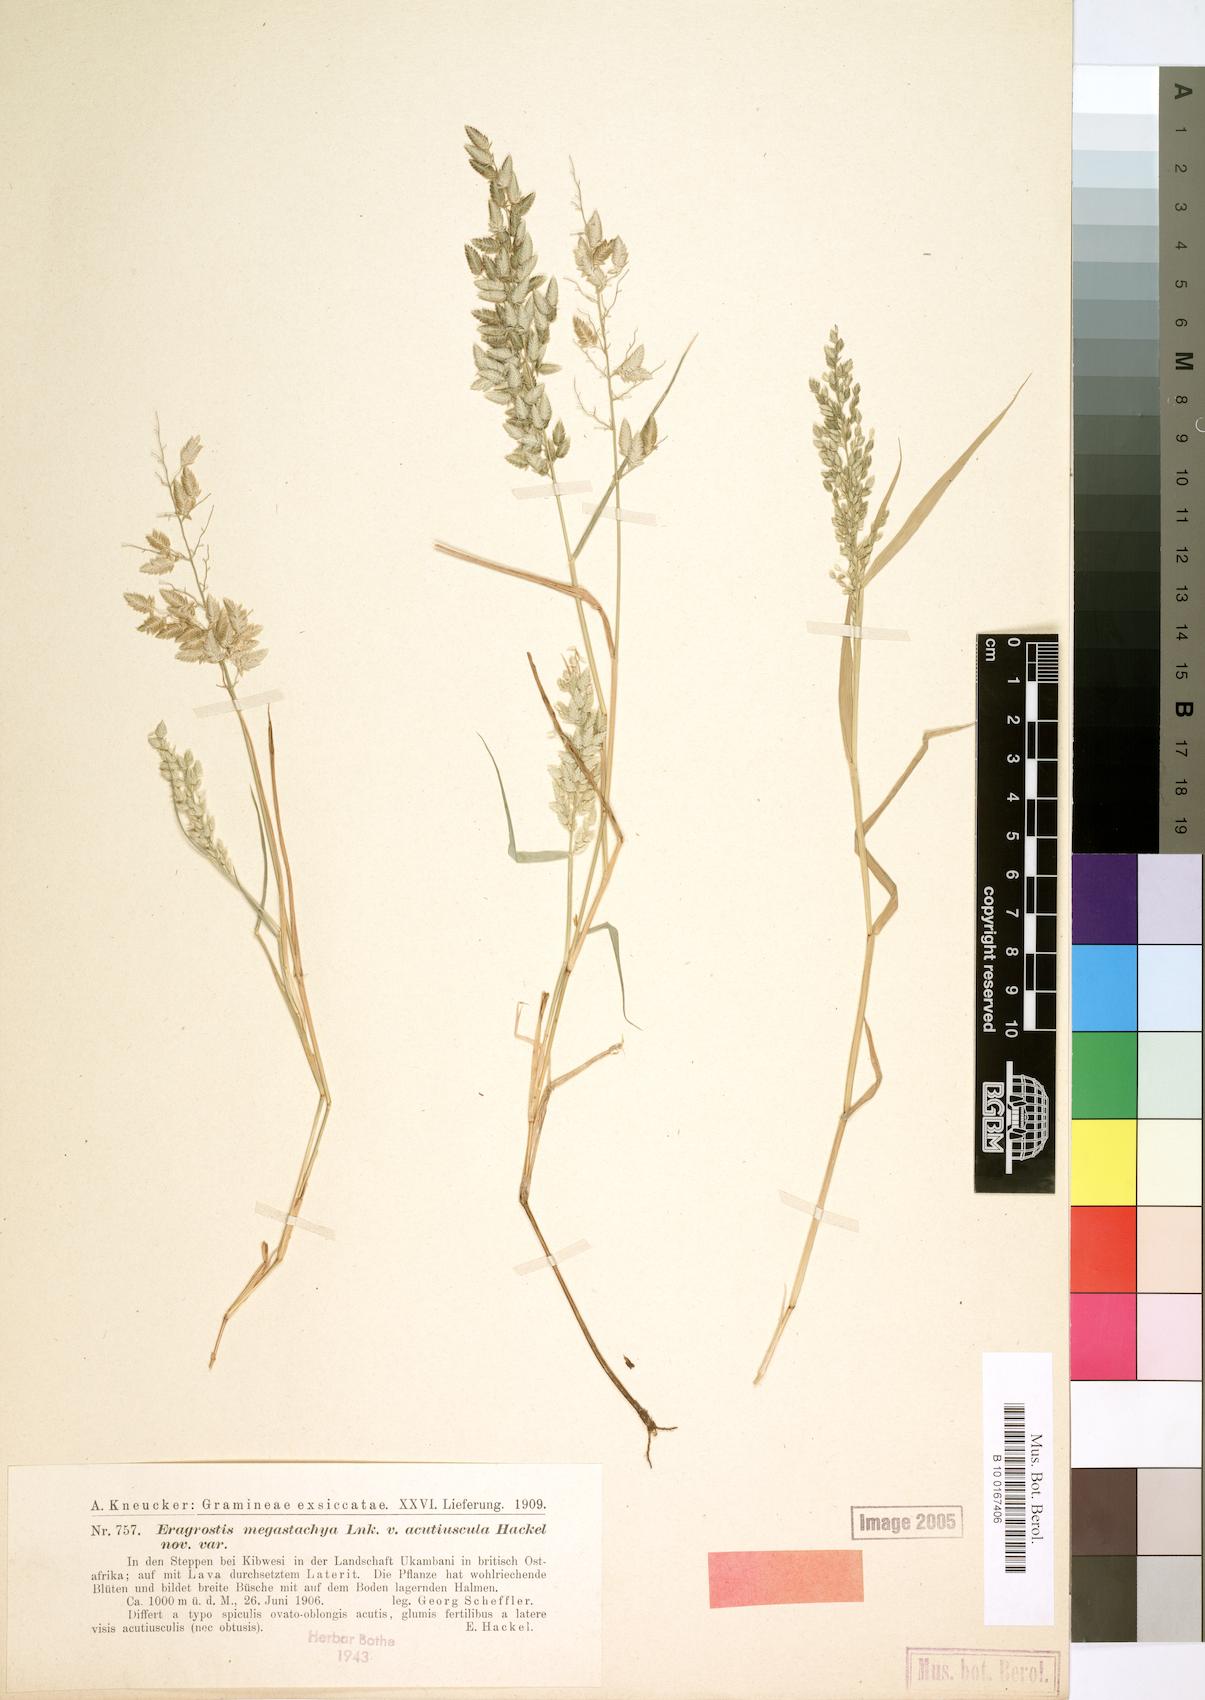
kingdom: Plantae
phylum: Tracheophyta
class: Liliopsida
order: Poales
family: Poaceae
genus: Eragrostis
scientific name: Eragrostis cilianensis
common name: Stinkgrass
